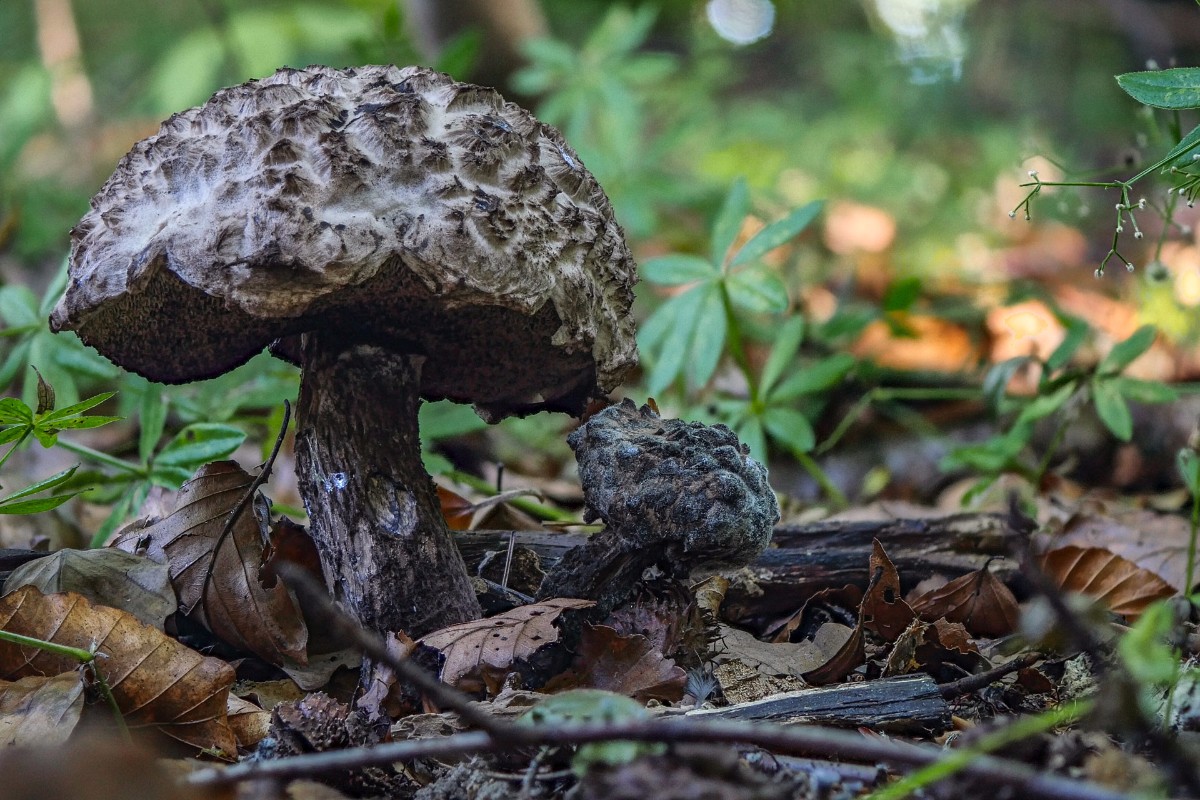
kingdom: Fungi
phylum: Basidiomycota
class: Agaricomycetes
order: Boletales
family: Boletaceae
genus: Strobilomyces
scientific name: Strobilomyces strobilaceus
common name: koglerørhat
